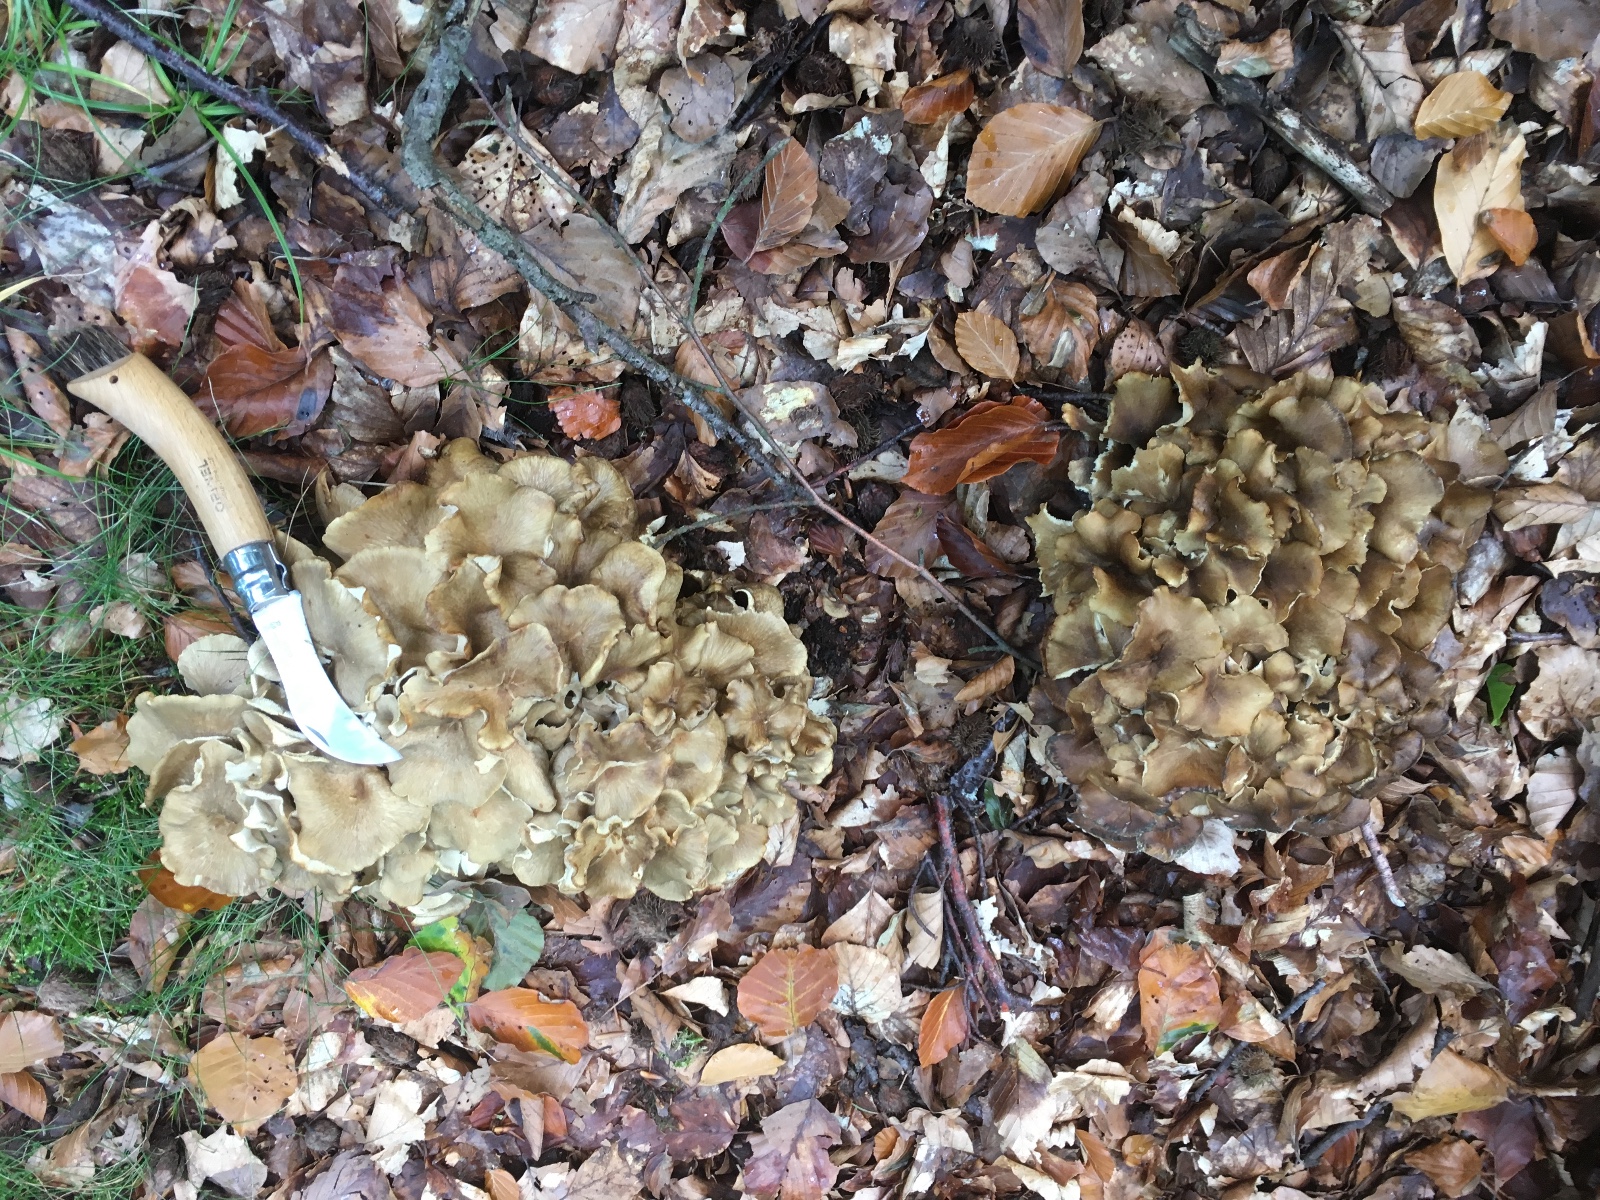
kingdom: Fungi
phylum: Basidiomycota
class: Agaricomycetes
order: Polyporales
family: Polyporaceae
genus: Polyporus
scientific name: Polyporus umbellatus
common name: skærmformet stilkporesvamp
